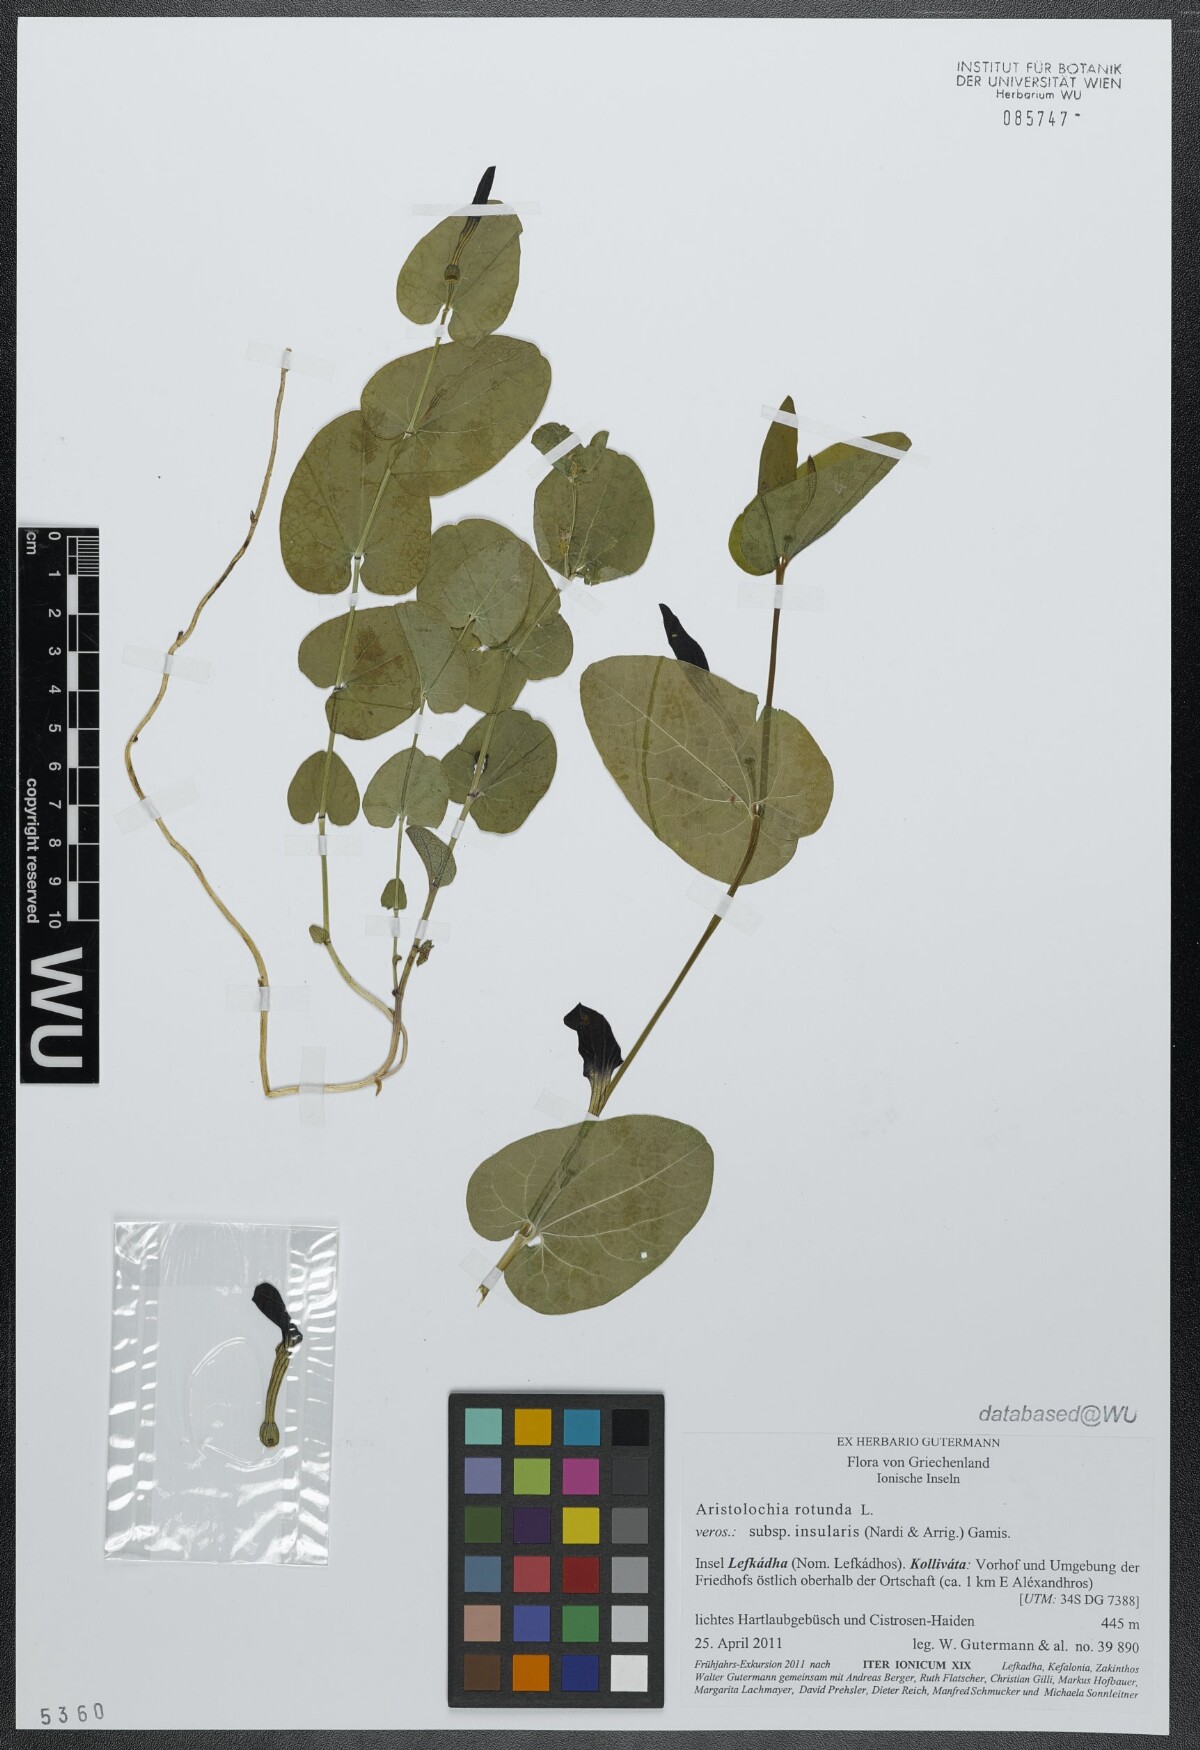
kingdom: Plantae
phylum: Tracheophyta
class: Magnoliopsida
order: Piperales
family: Aristolochiaceae
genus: Aristolochia
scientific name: Aristolochia rotunda
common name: Smearwort
